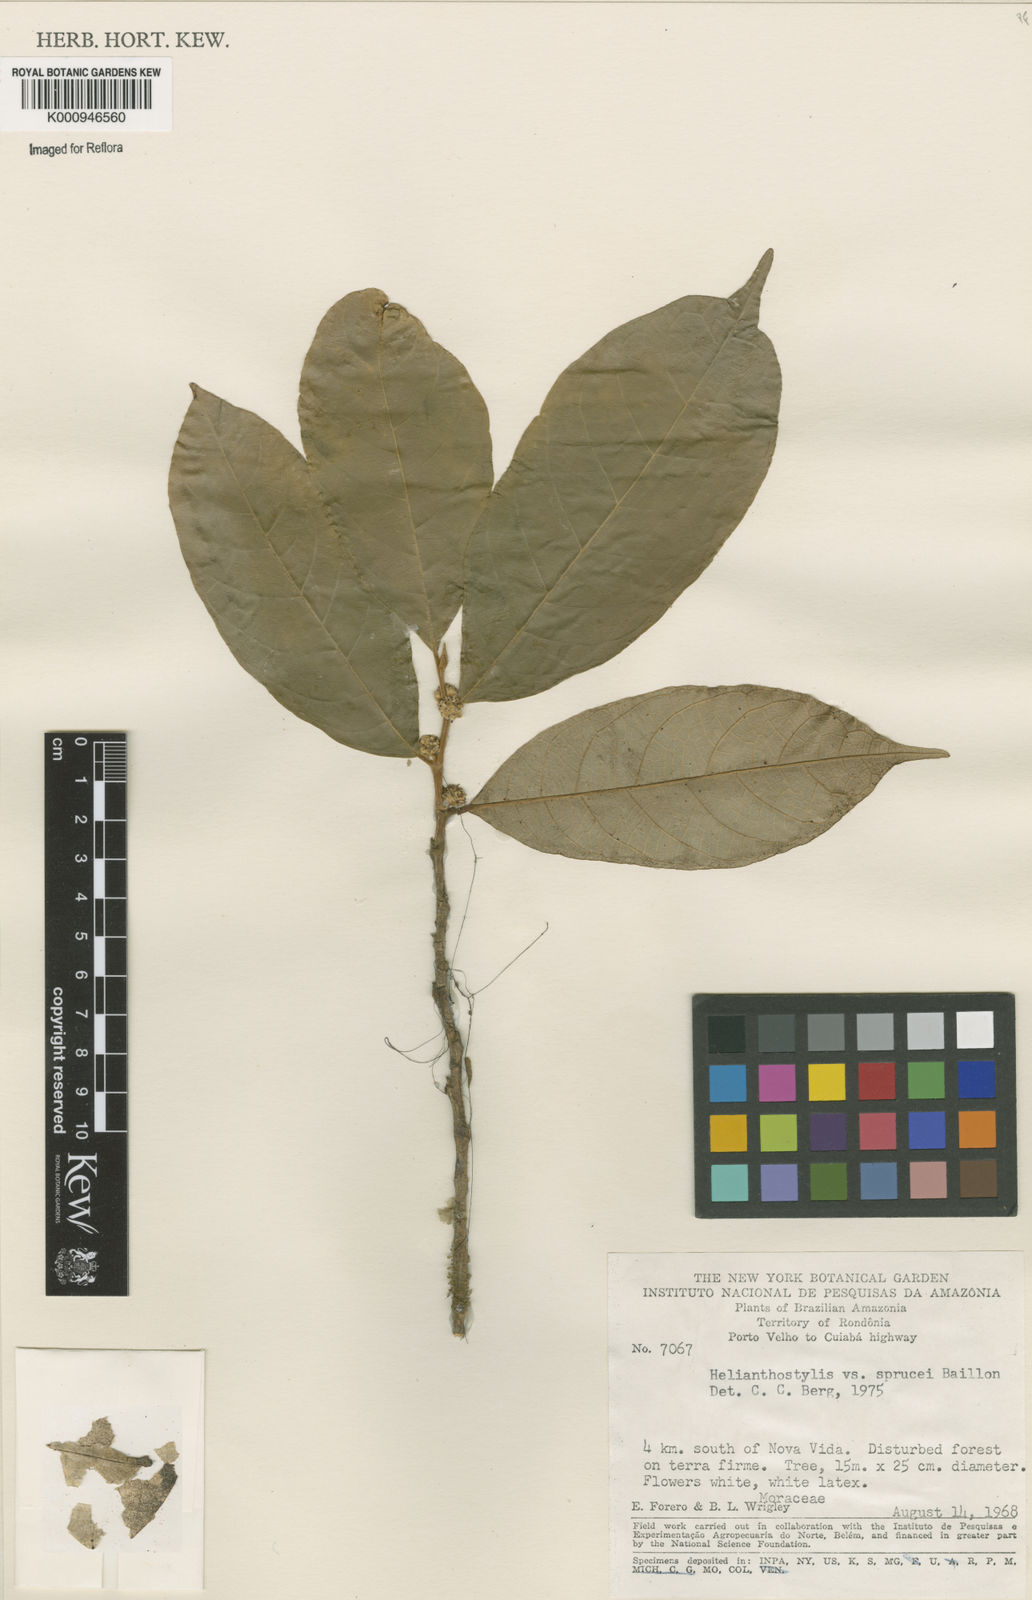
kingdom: Plantae
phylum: Tracheophyta
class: Magnoliopsida
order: Rosales
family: Moraceae
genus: Brosimum
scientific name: Brosimum sprucei
